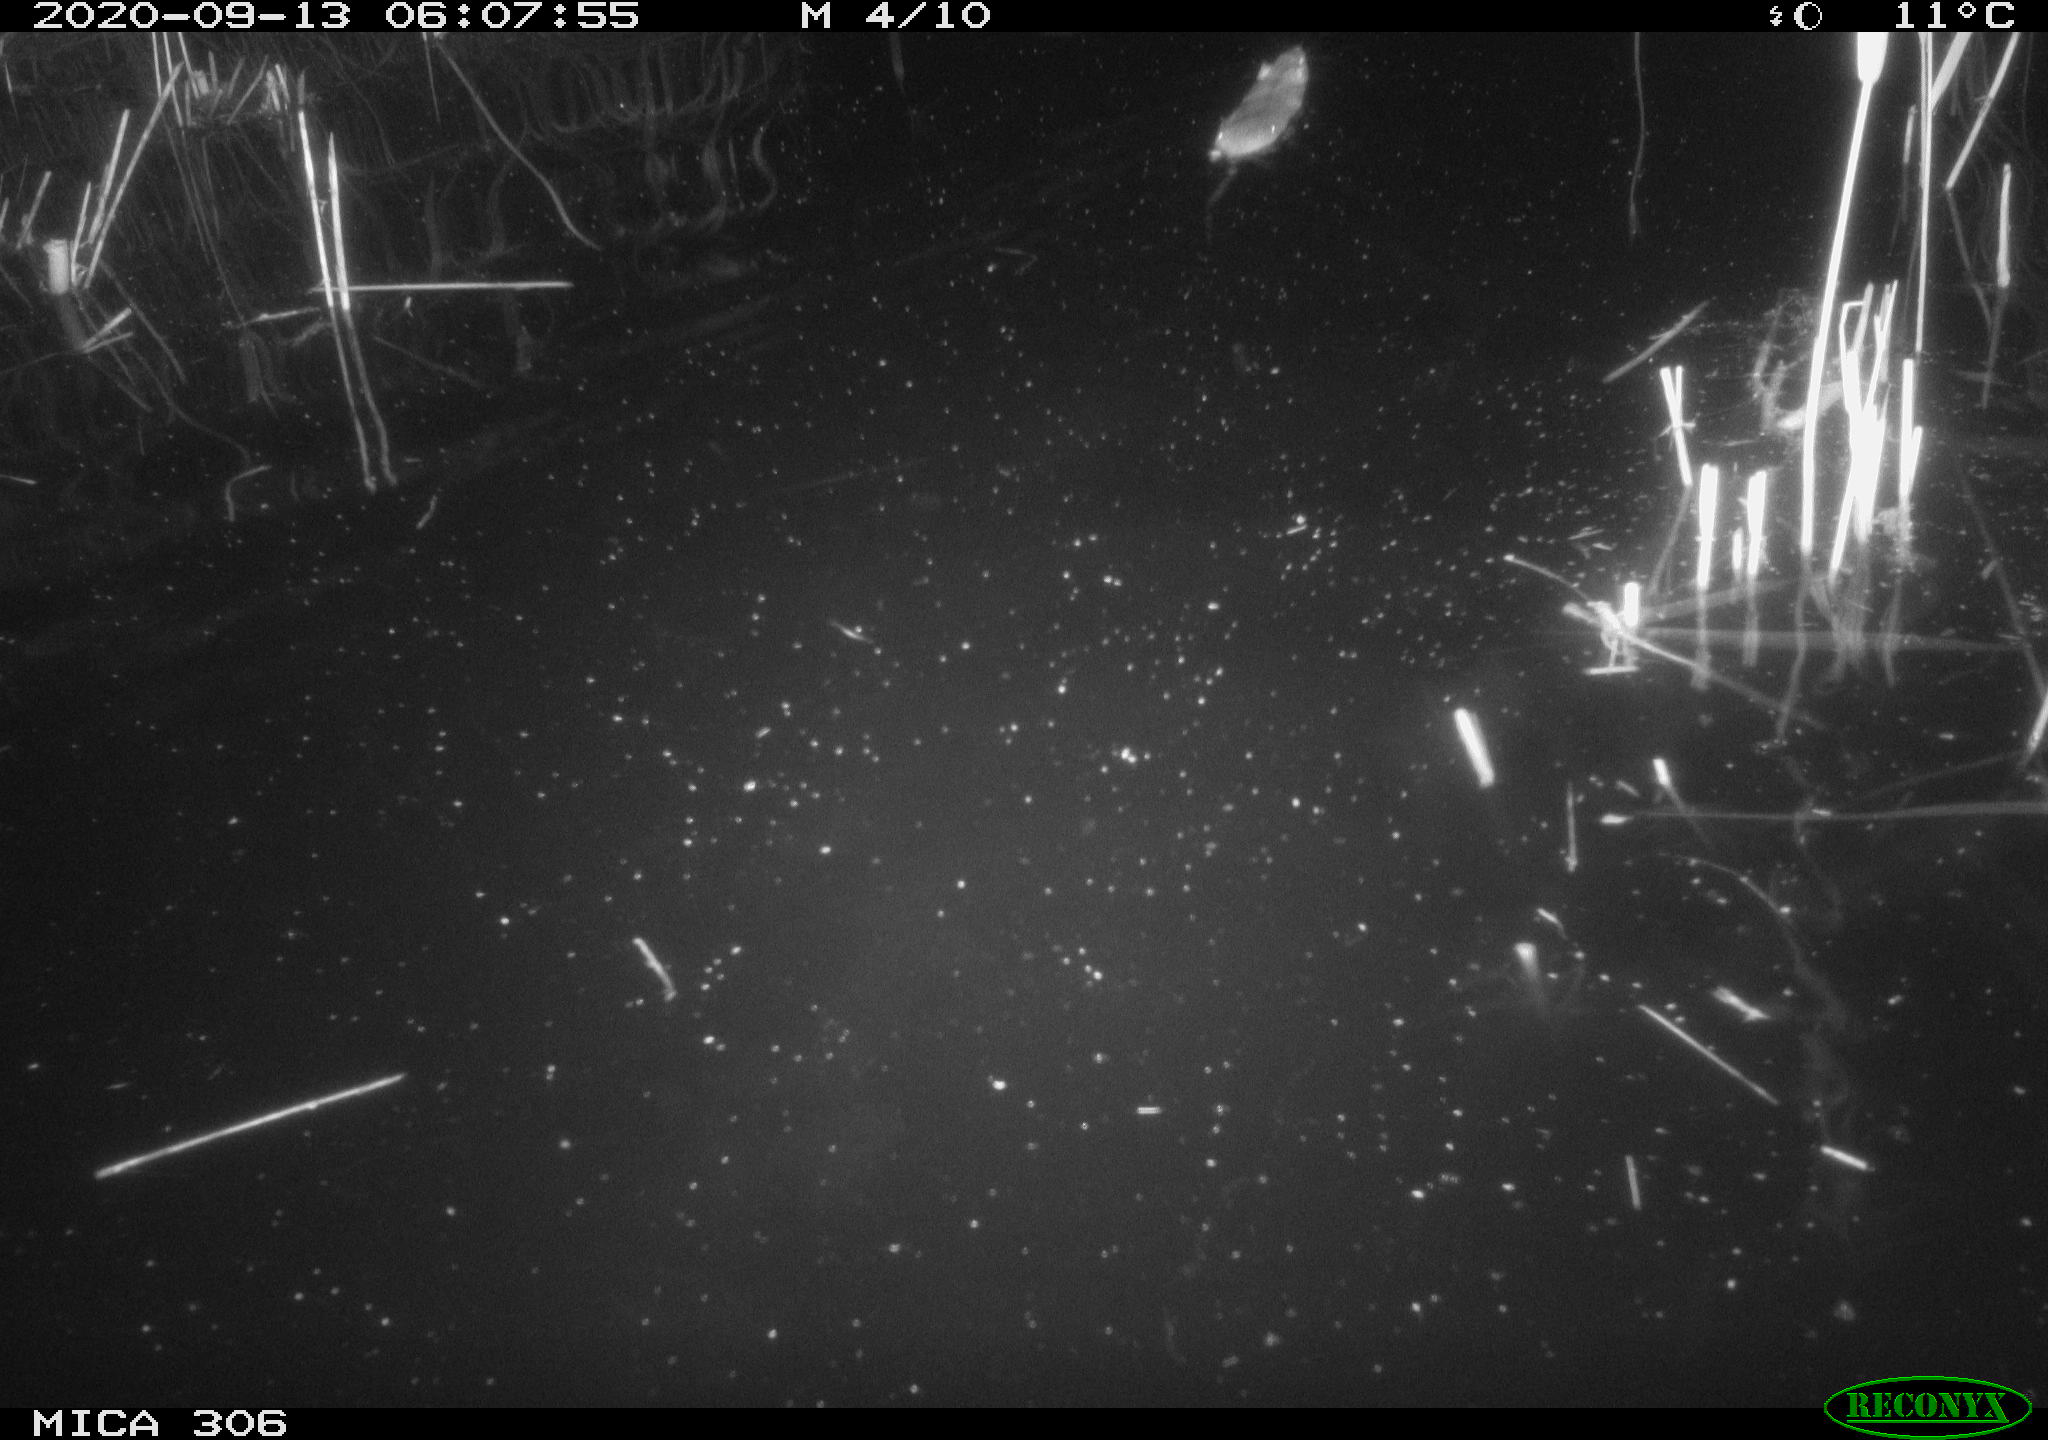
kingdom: Animalia
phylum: Chordata
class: Mammalia
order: Rodentia
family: Cricetidae
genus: Ondatra
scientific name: Ondatra zibethicus
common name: Muskrat
